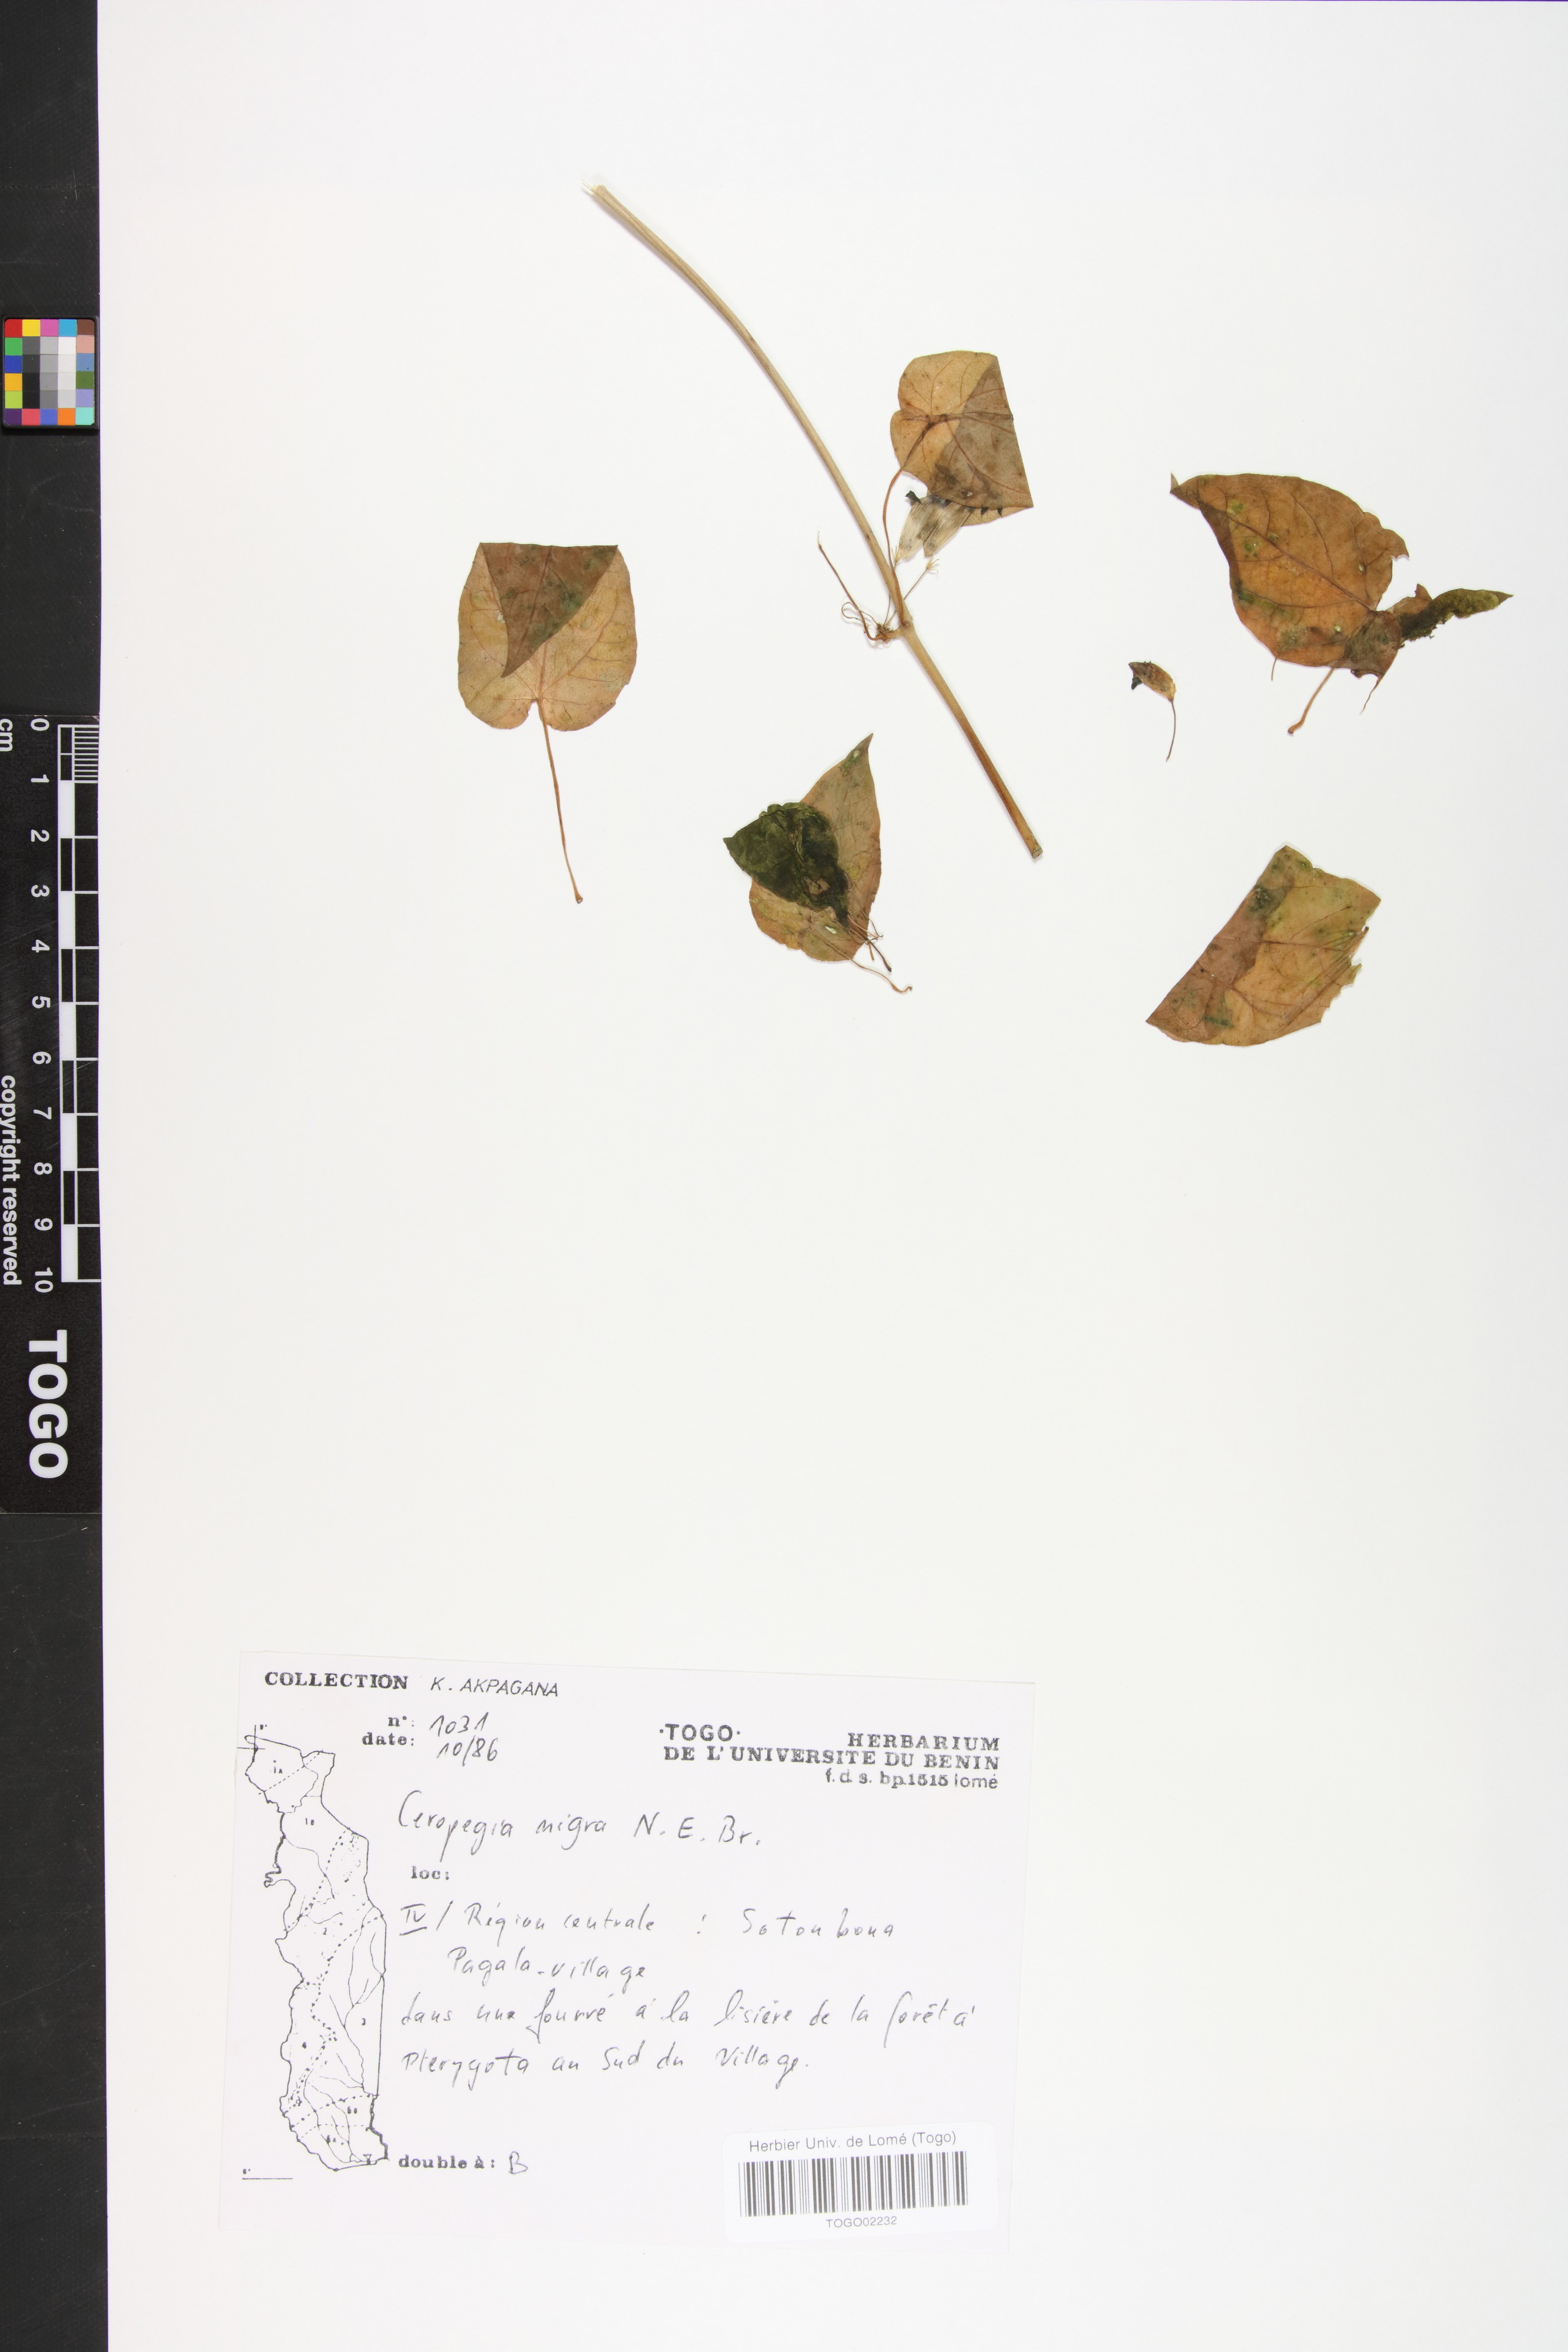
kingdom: Plantae
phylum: Tracheophyta
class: Magnoliopsida
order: Gentianales
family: Apocynaceae
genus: Ceropegia
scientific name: Ceropegia nigra
